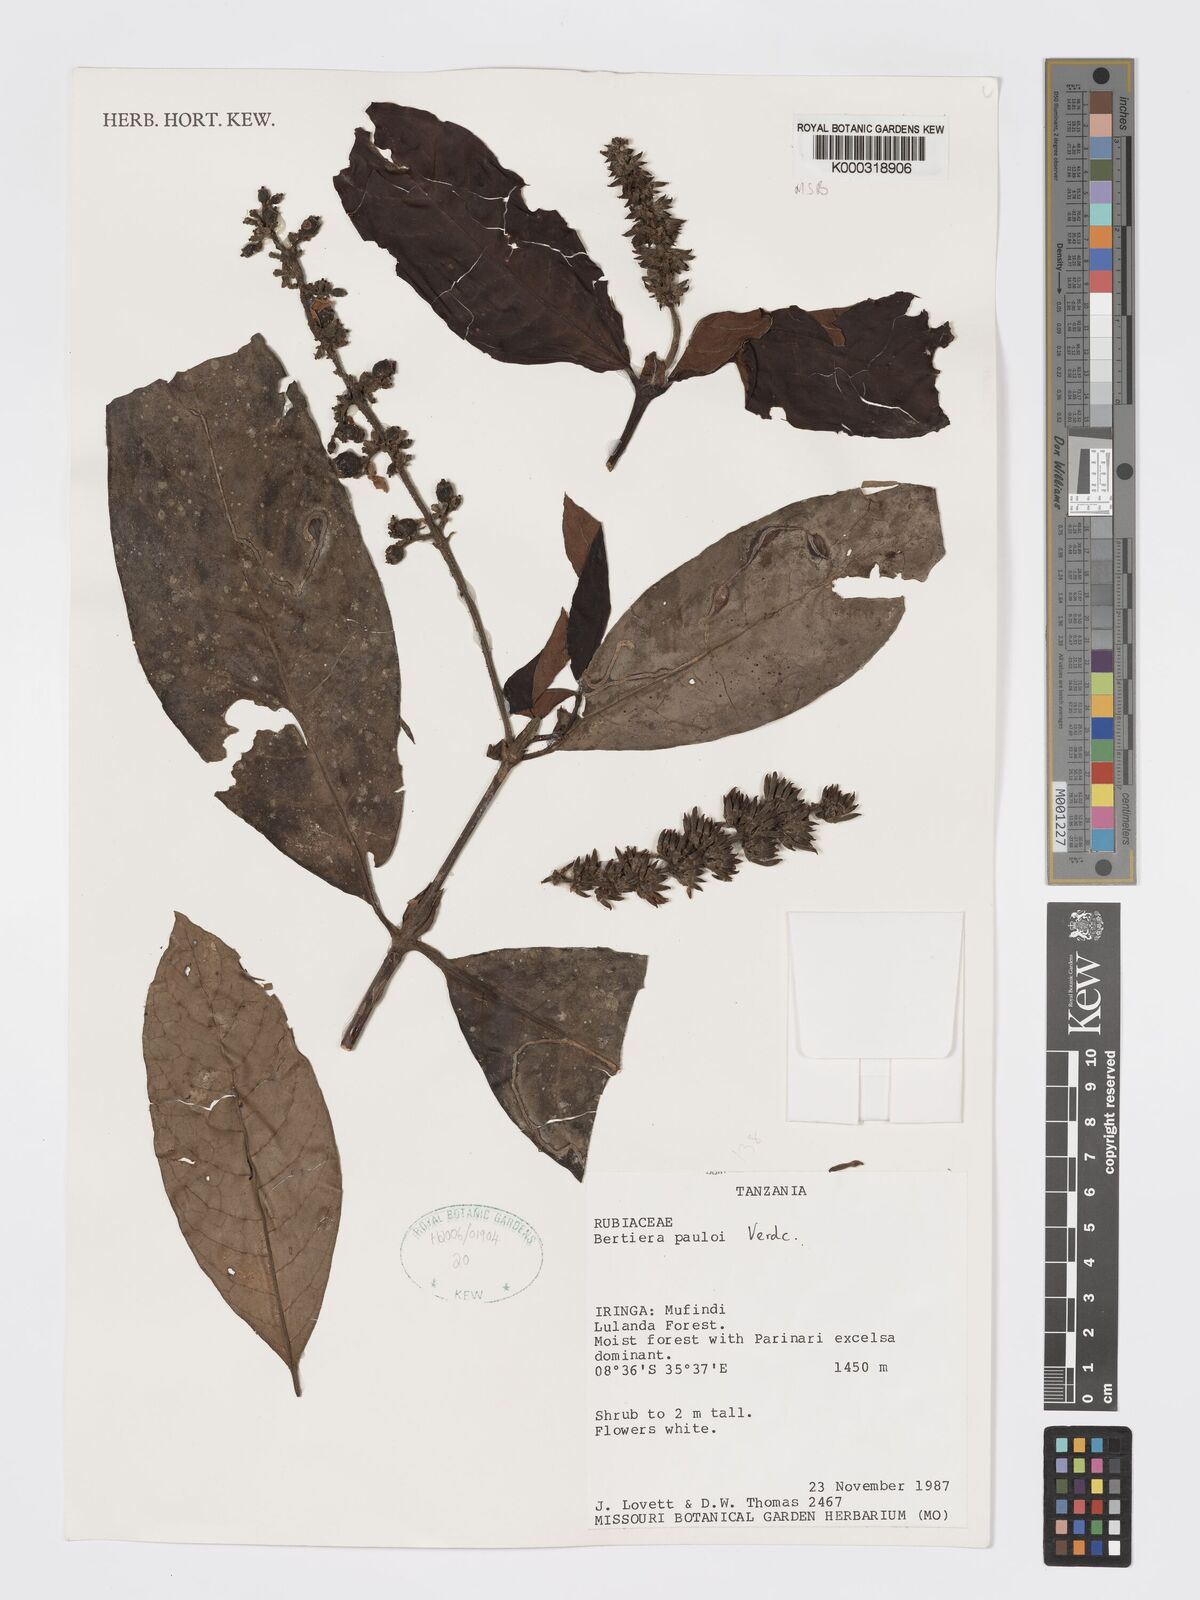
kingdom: Plantae
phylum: Tracheophyta
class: Magnoliopsida
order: Gentianales
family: Rubiaceae
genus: Bertiera
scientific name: Bertiera pauloi
